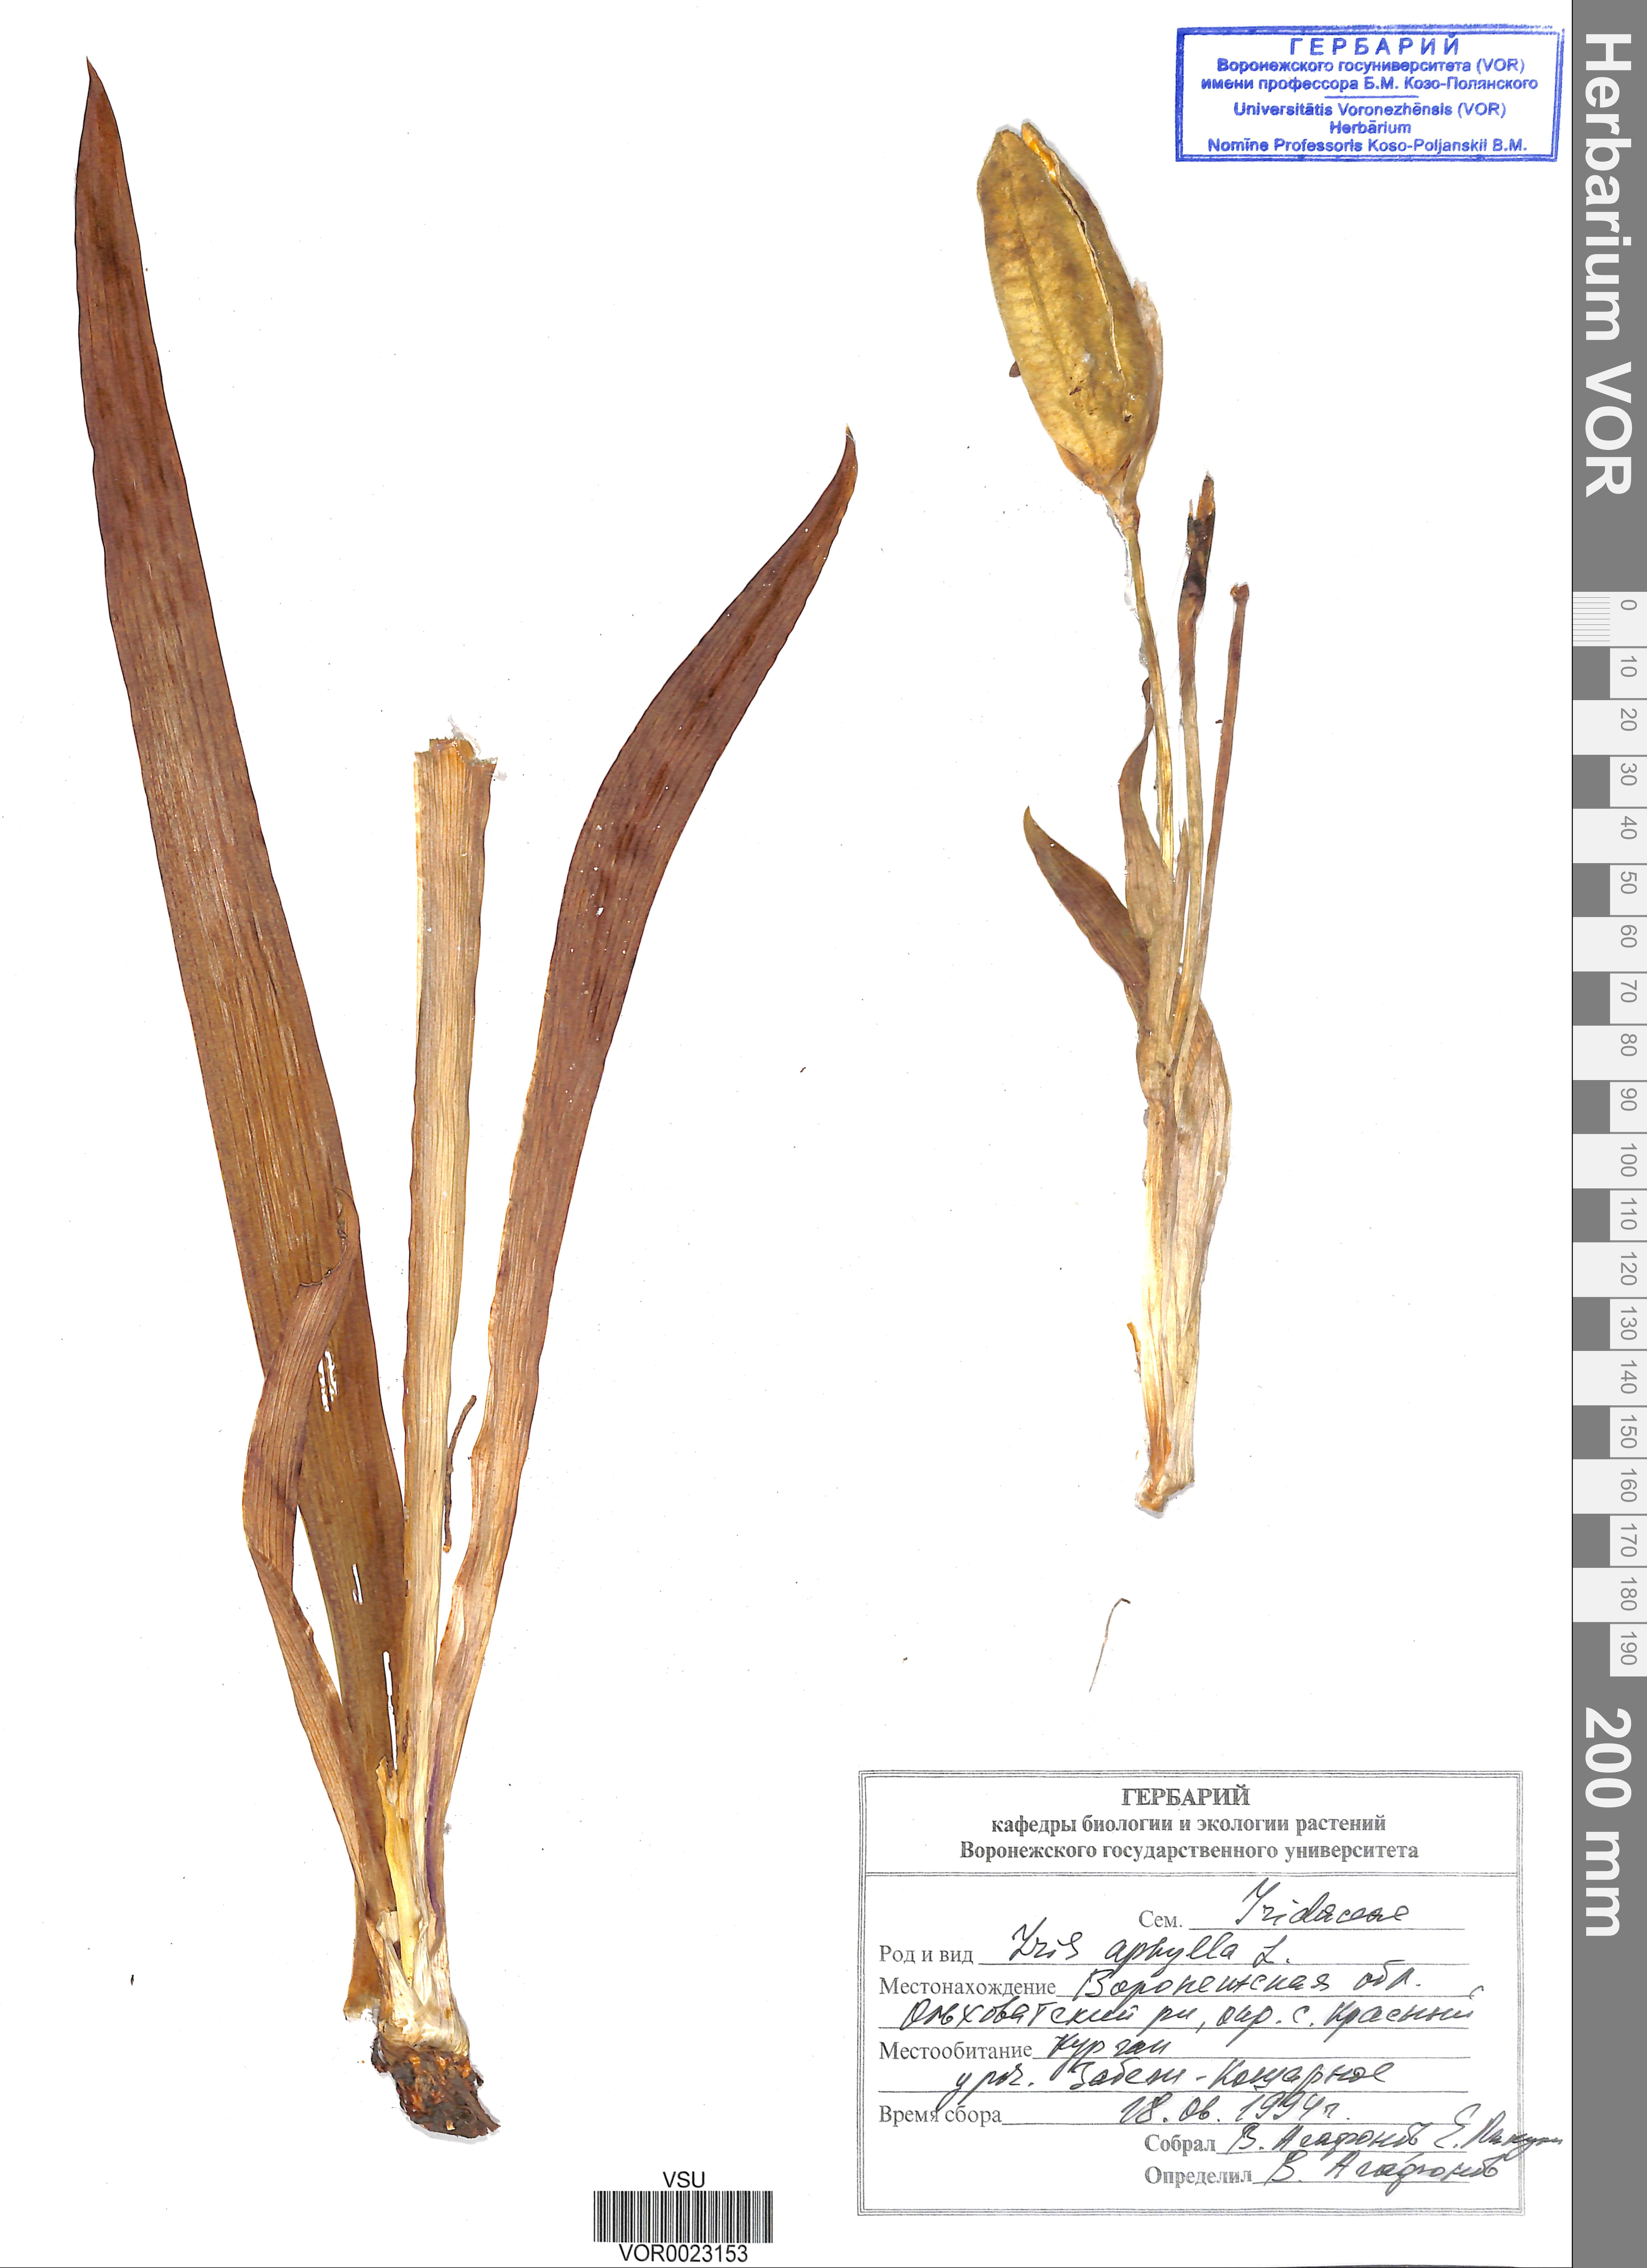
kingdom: Plantae
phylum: Tracheophyta
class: Liliopsida
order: Asparagales
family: Iridaceae
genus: Iris
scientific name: Iris aphylla
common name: Stool iris
